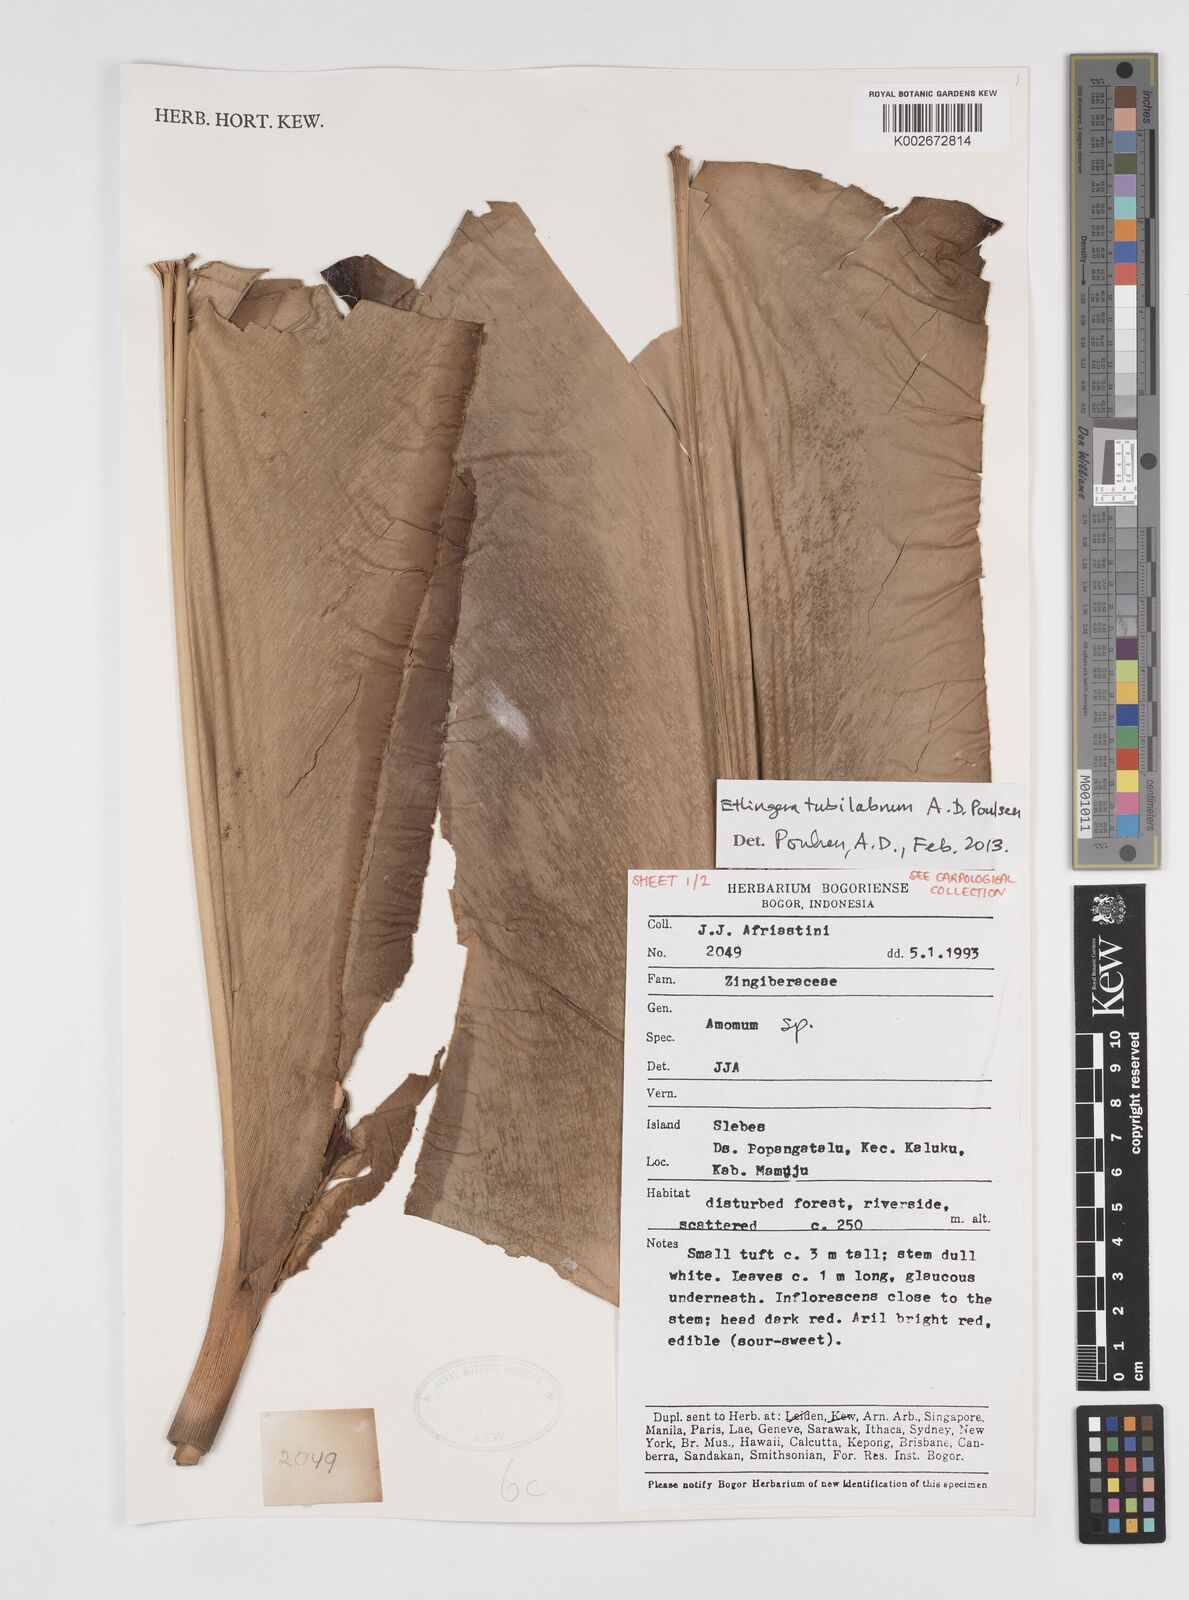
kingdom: Plantae
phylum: Tracheophyta
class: Liliopsida
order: Zingiberales
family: Zingiberaceae
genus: Etlingera
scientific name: Etlingera tubilabrum
